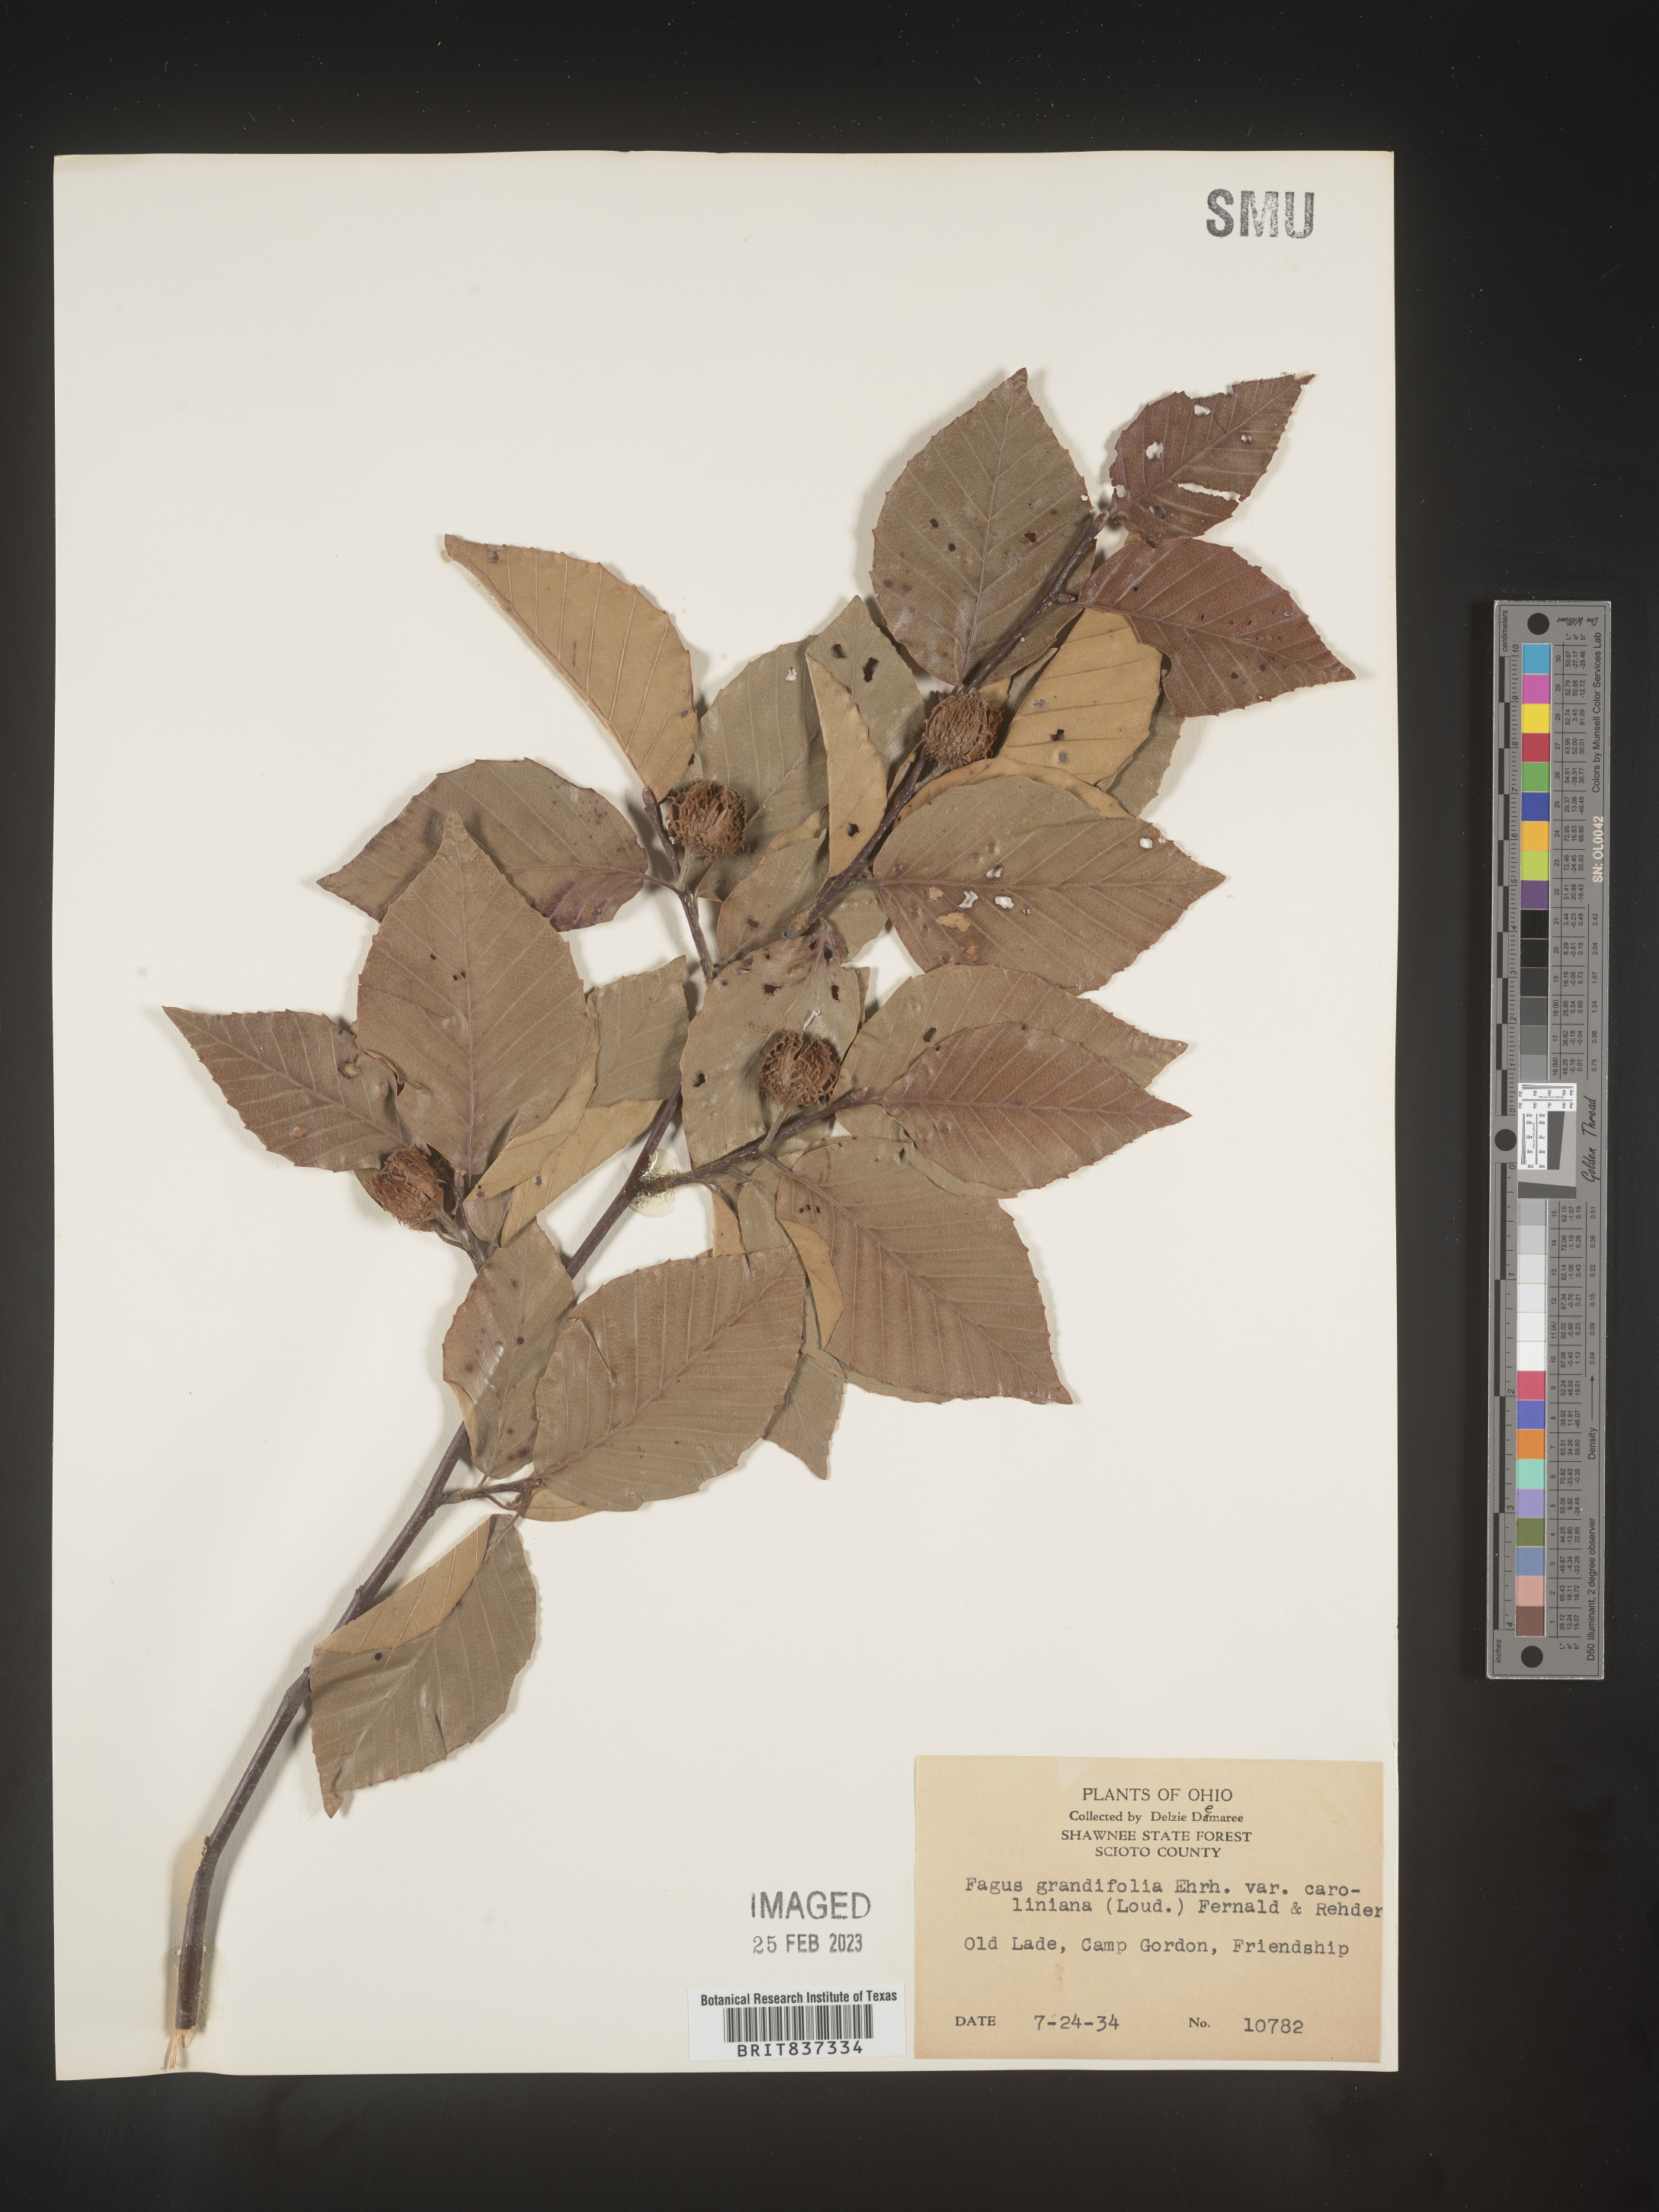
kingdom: Plantae
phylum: Tracheophyta
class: Magnoliopsida
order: Fagales
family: Fagaceae
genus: Fagus
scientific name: Fagus grandifolia
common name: American beech
